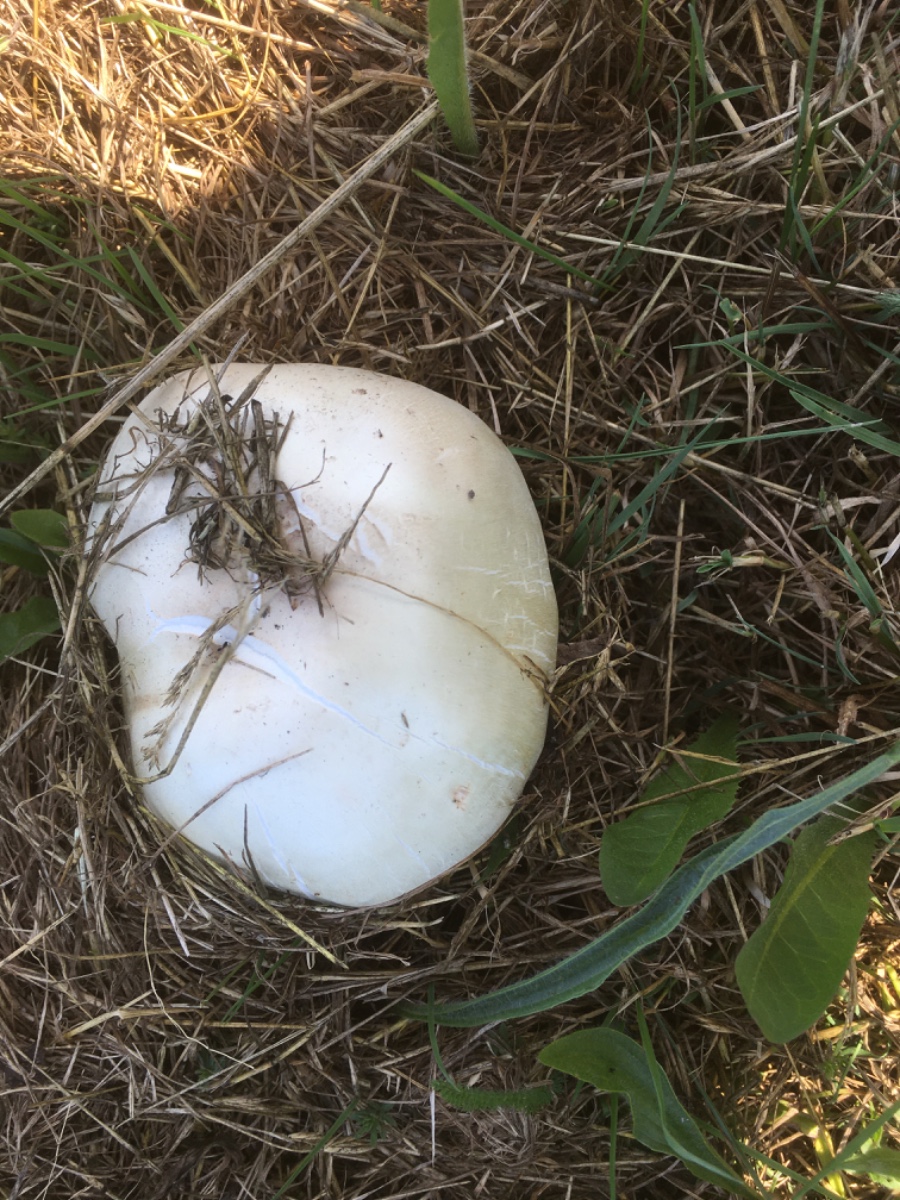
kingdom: Fungi
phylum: Basidiomycota
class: Agaricomycetes
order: Agaricales
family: Agaricaceae
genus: Agaricus
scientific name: Agaricus arvensis
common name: ager-champignon
